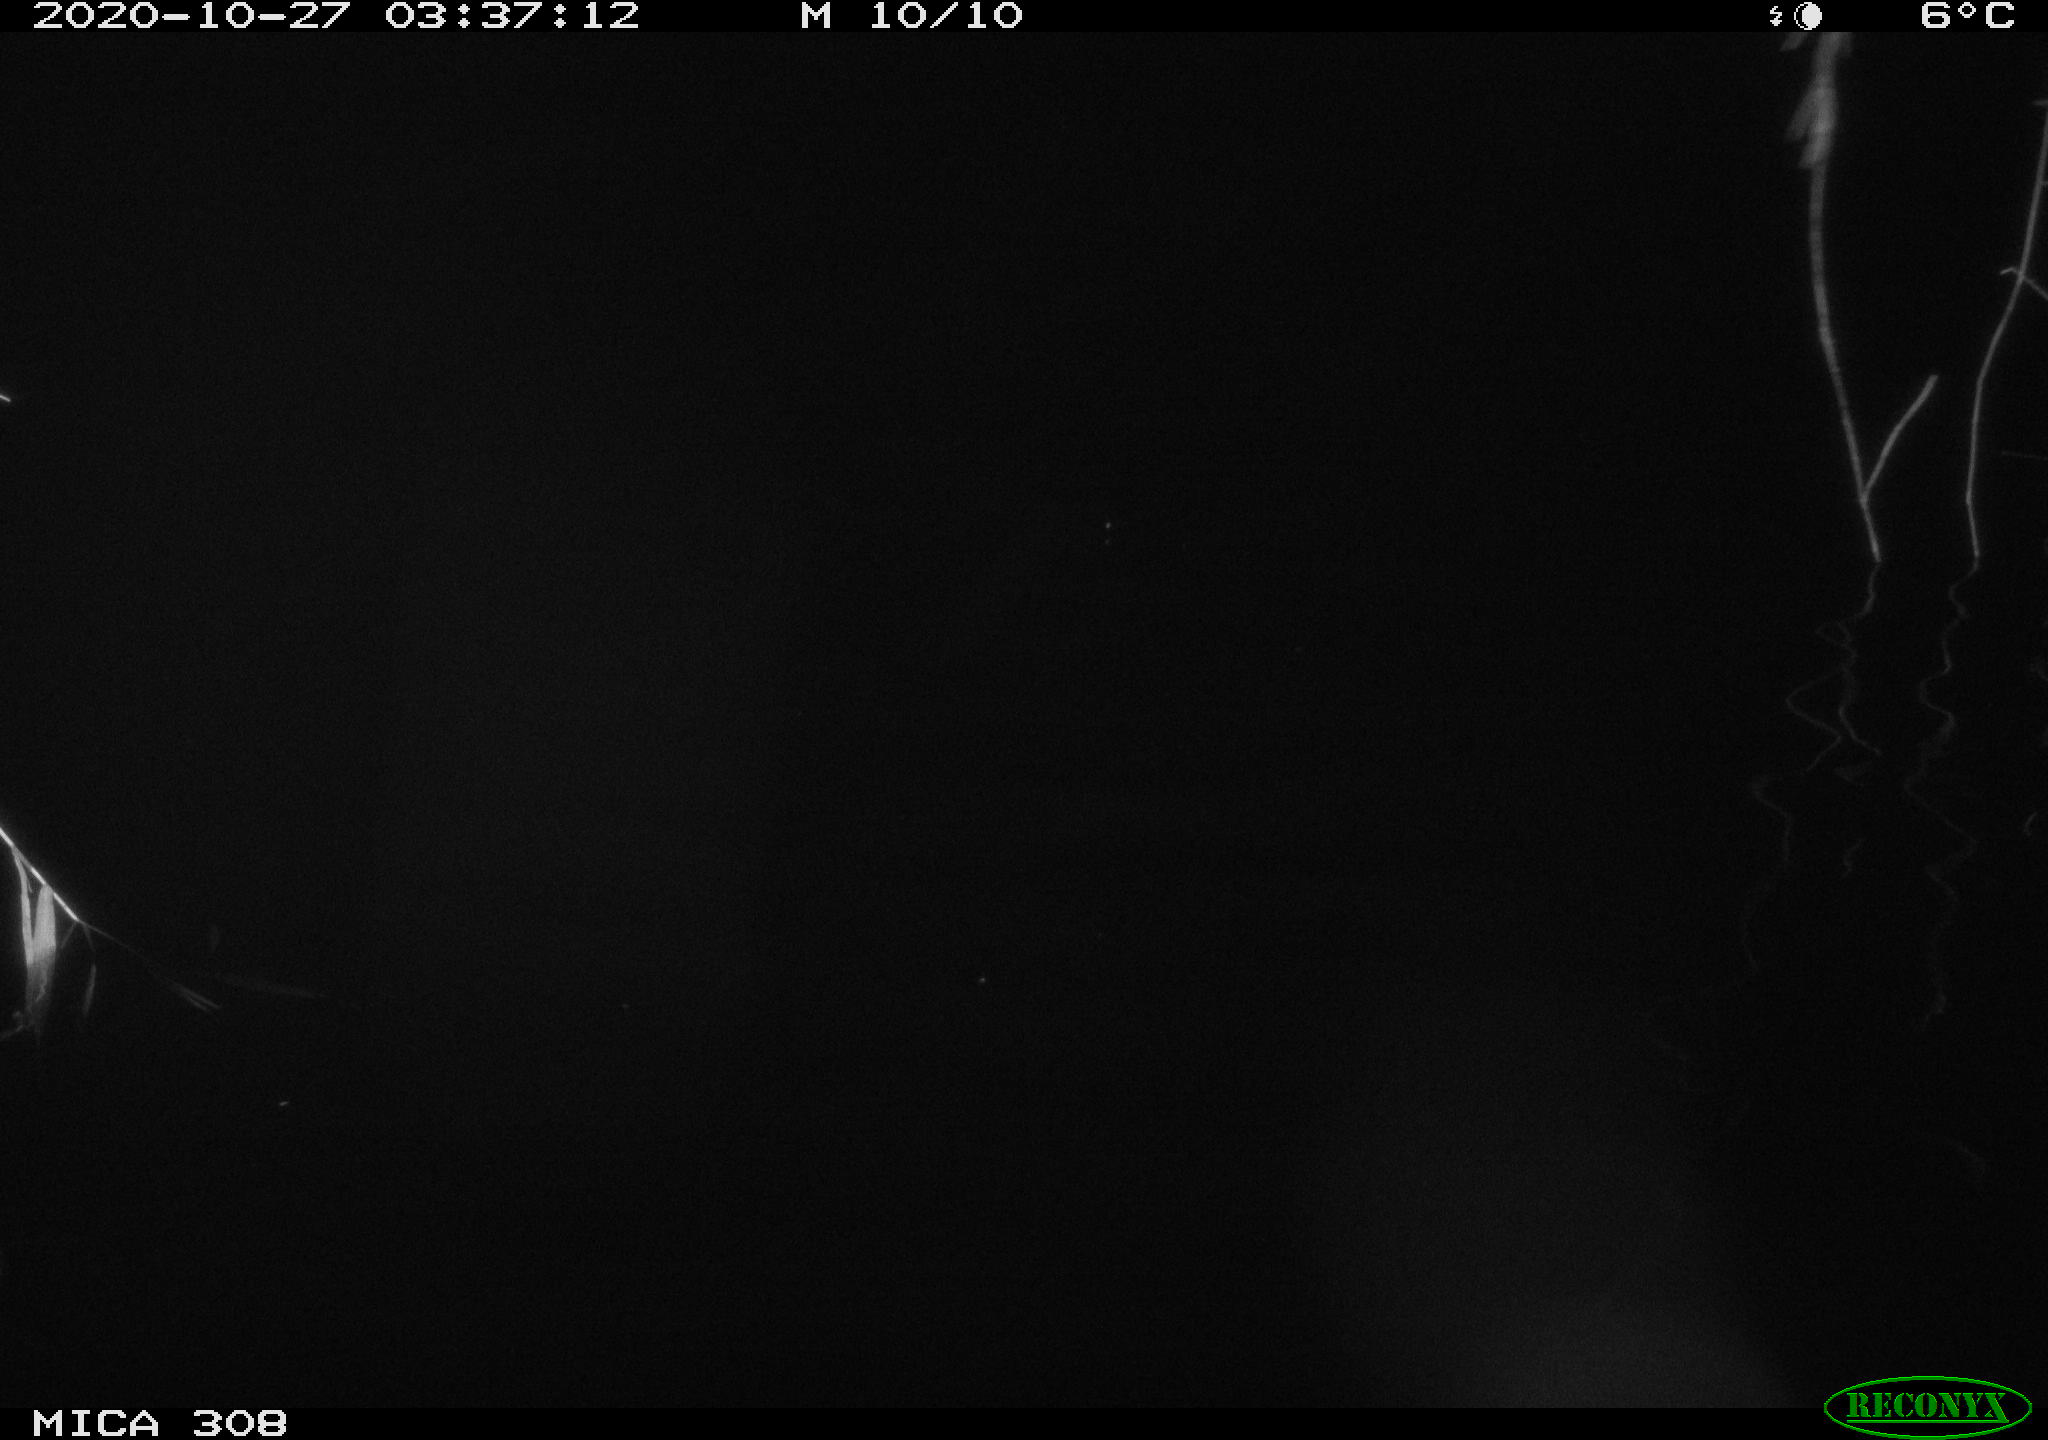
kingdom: Animalia
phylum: Chordata
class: Mammalia
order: Rodentia
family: Muridae
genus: Rattus
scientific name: Rattus norvegicus
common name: Brown rat
